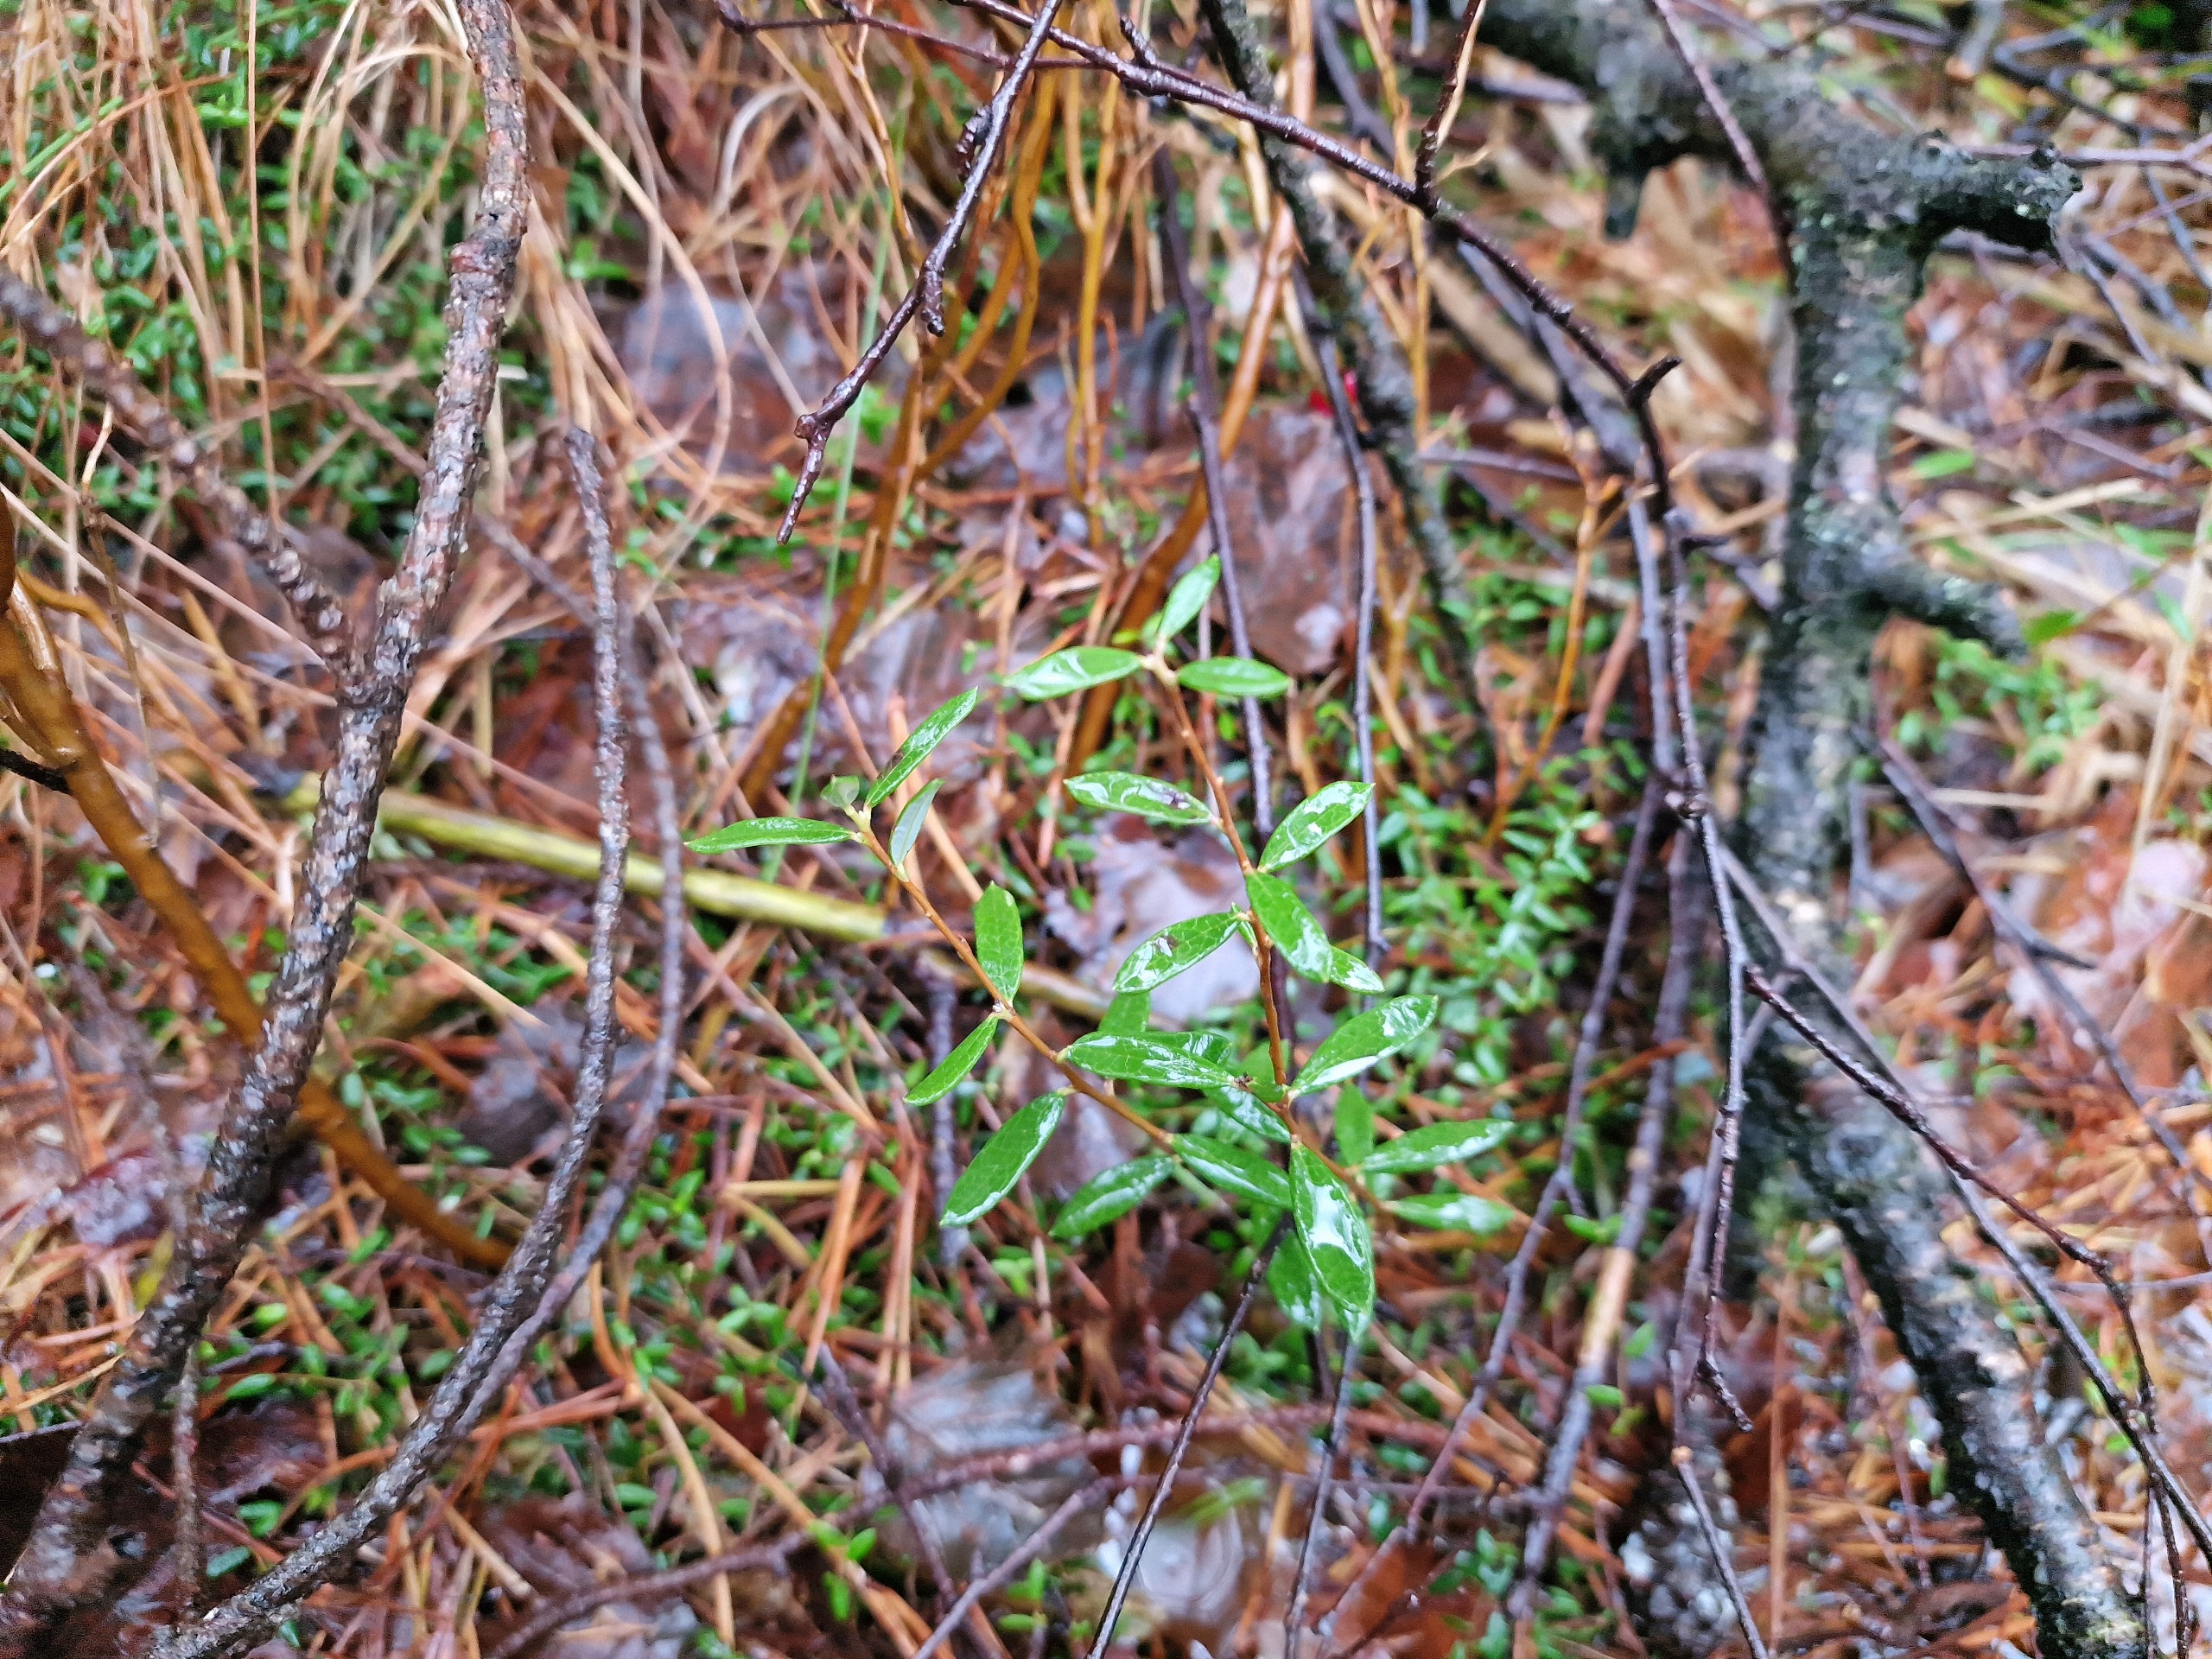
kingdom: Plantae
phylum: Tracheophyta
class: Magnoliopsida
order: Ericales
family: Ericaceae
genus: Andromeda
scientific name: Andromeda polifolia
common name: Rosmarinlyng
